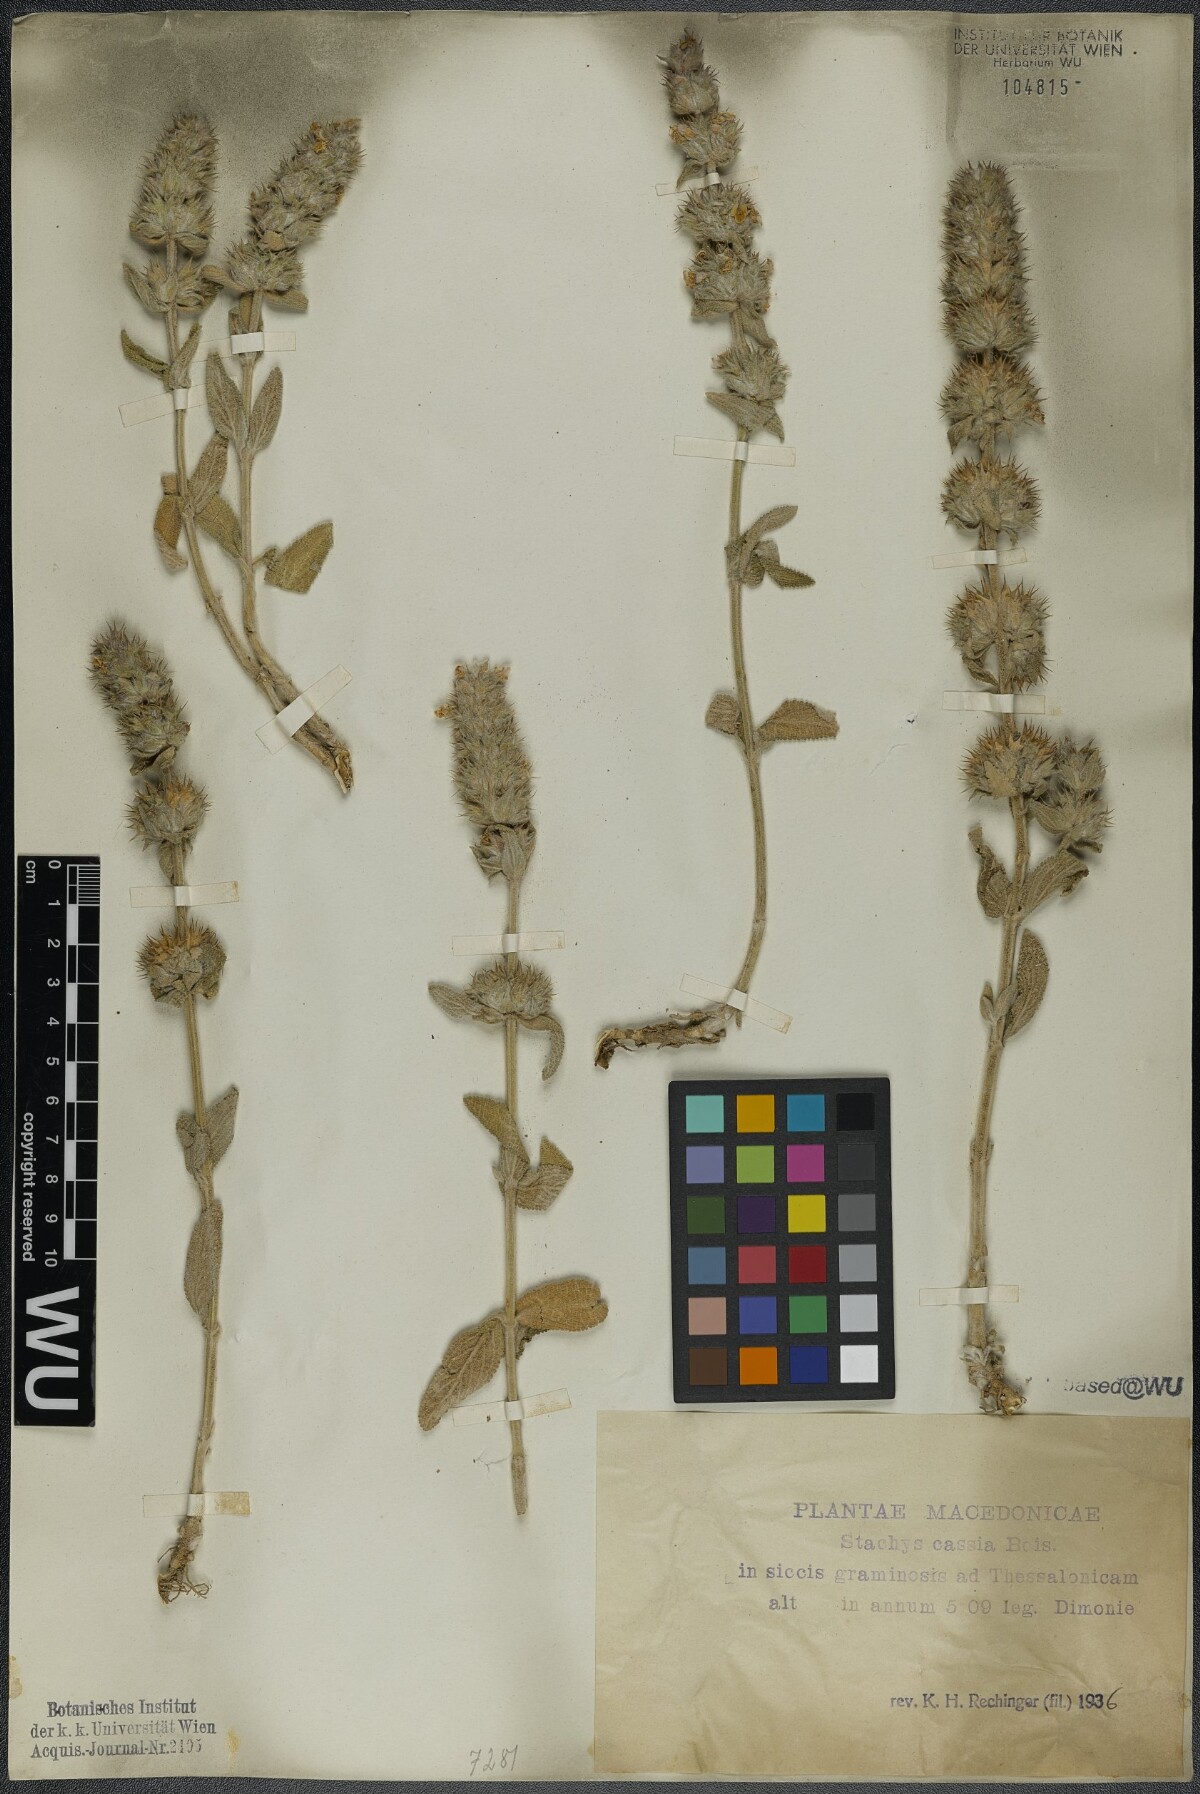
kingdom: Plantae
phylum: Tracheophyta
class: Magnoliopsida
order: Lamiales
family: Lamiaceae
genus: Stachys
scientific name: Stachys cretica
